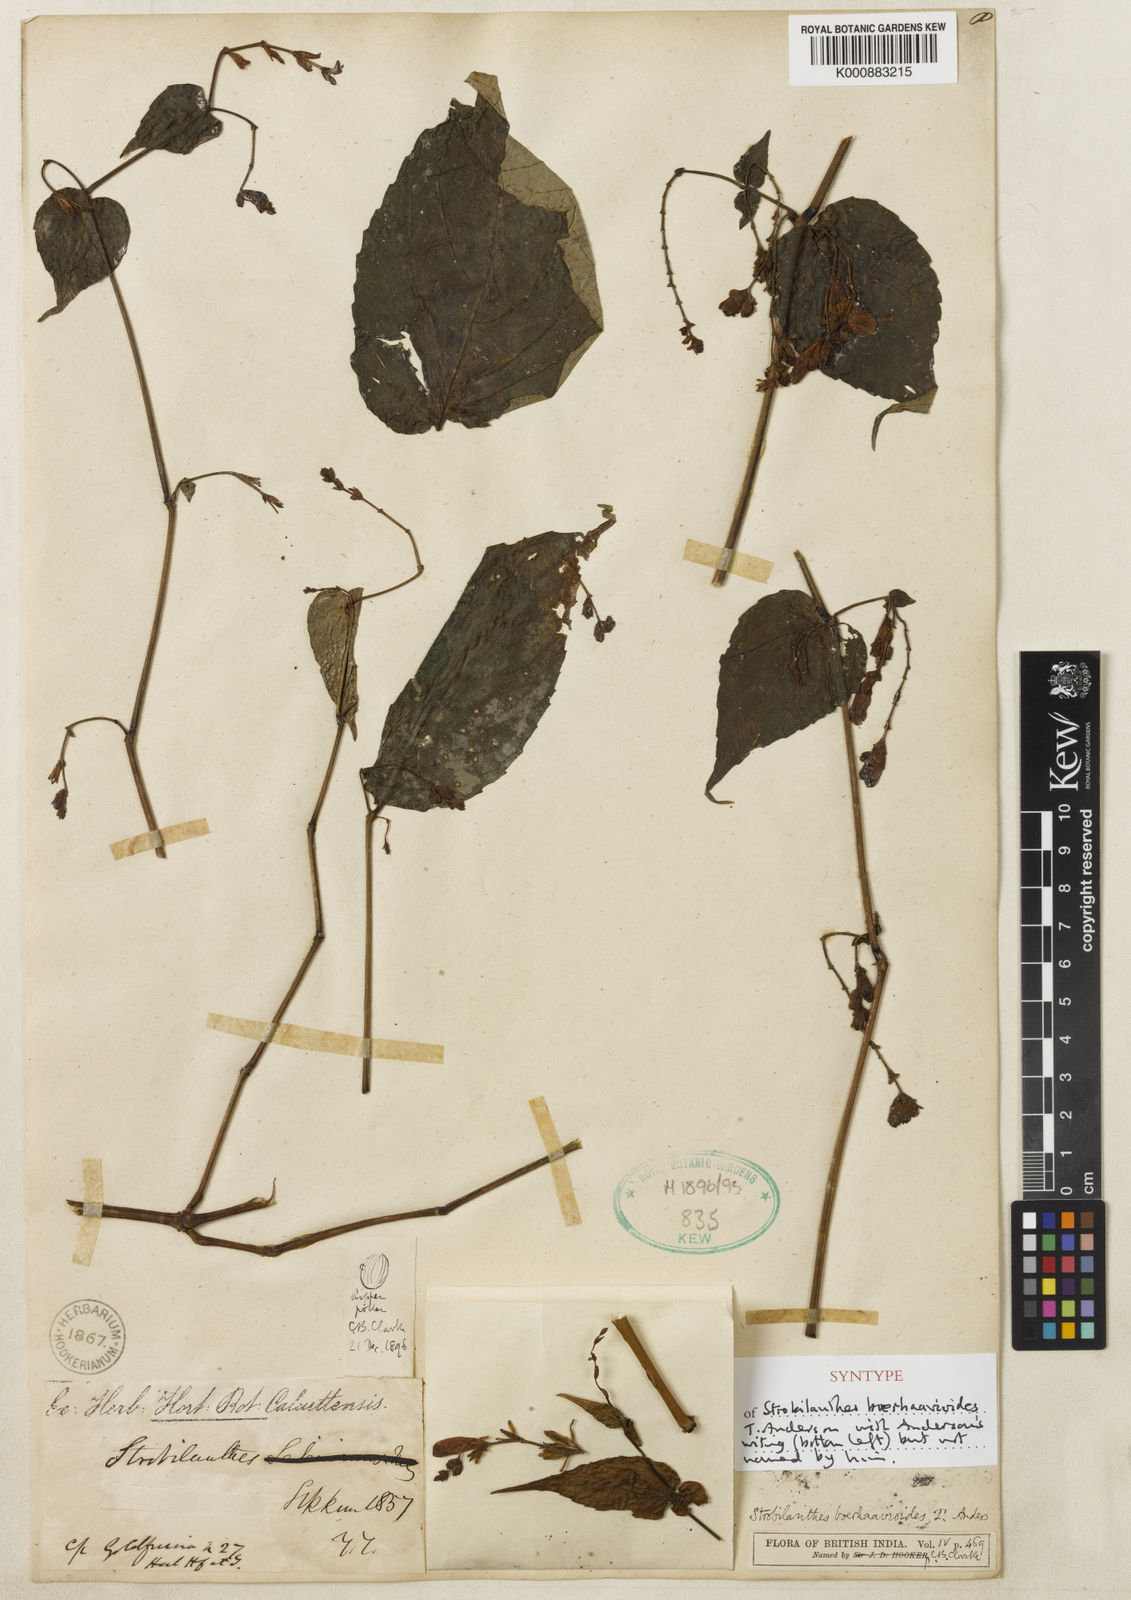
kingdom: Plantae
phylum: Tracheophyta
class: Magnoliopsida
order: Lamiales
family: Acanthaceae
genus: Strobilanthes
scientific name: Strobilanthes
